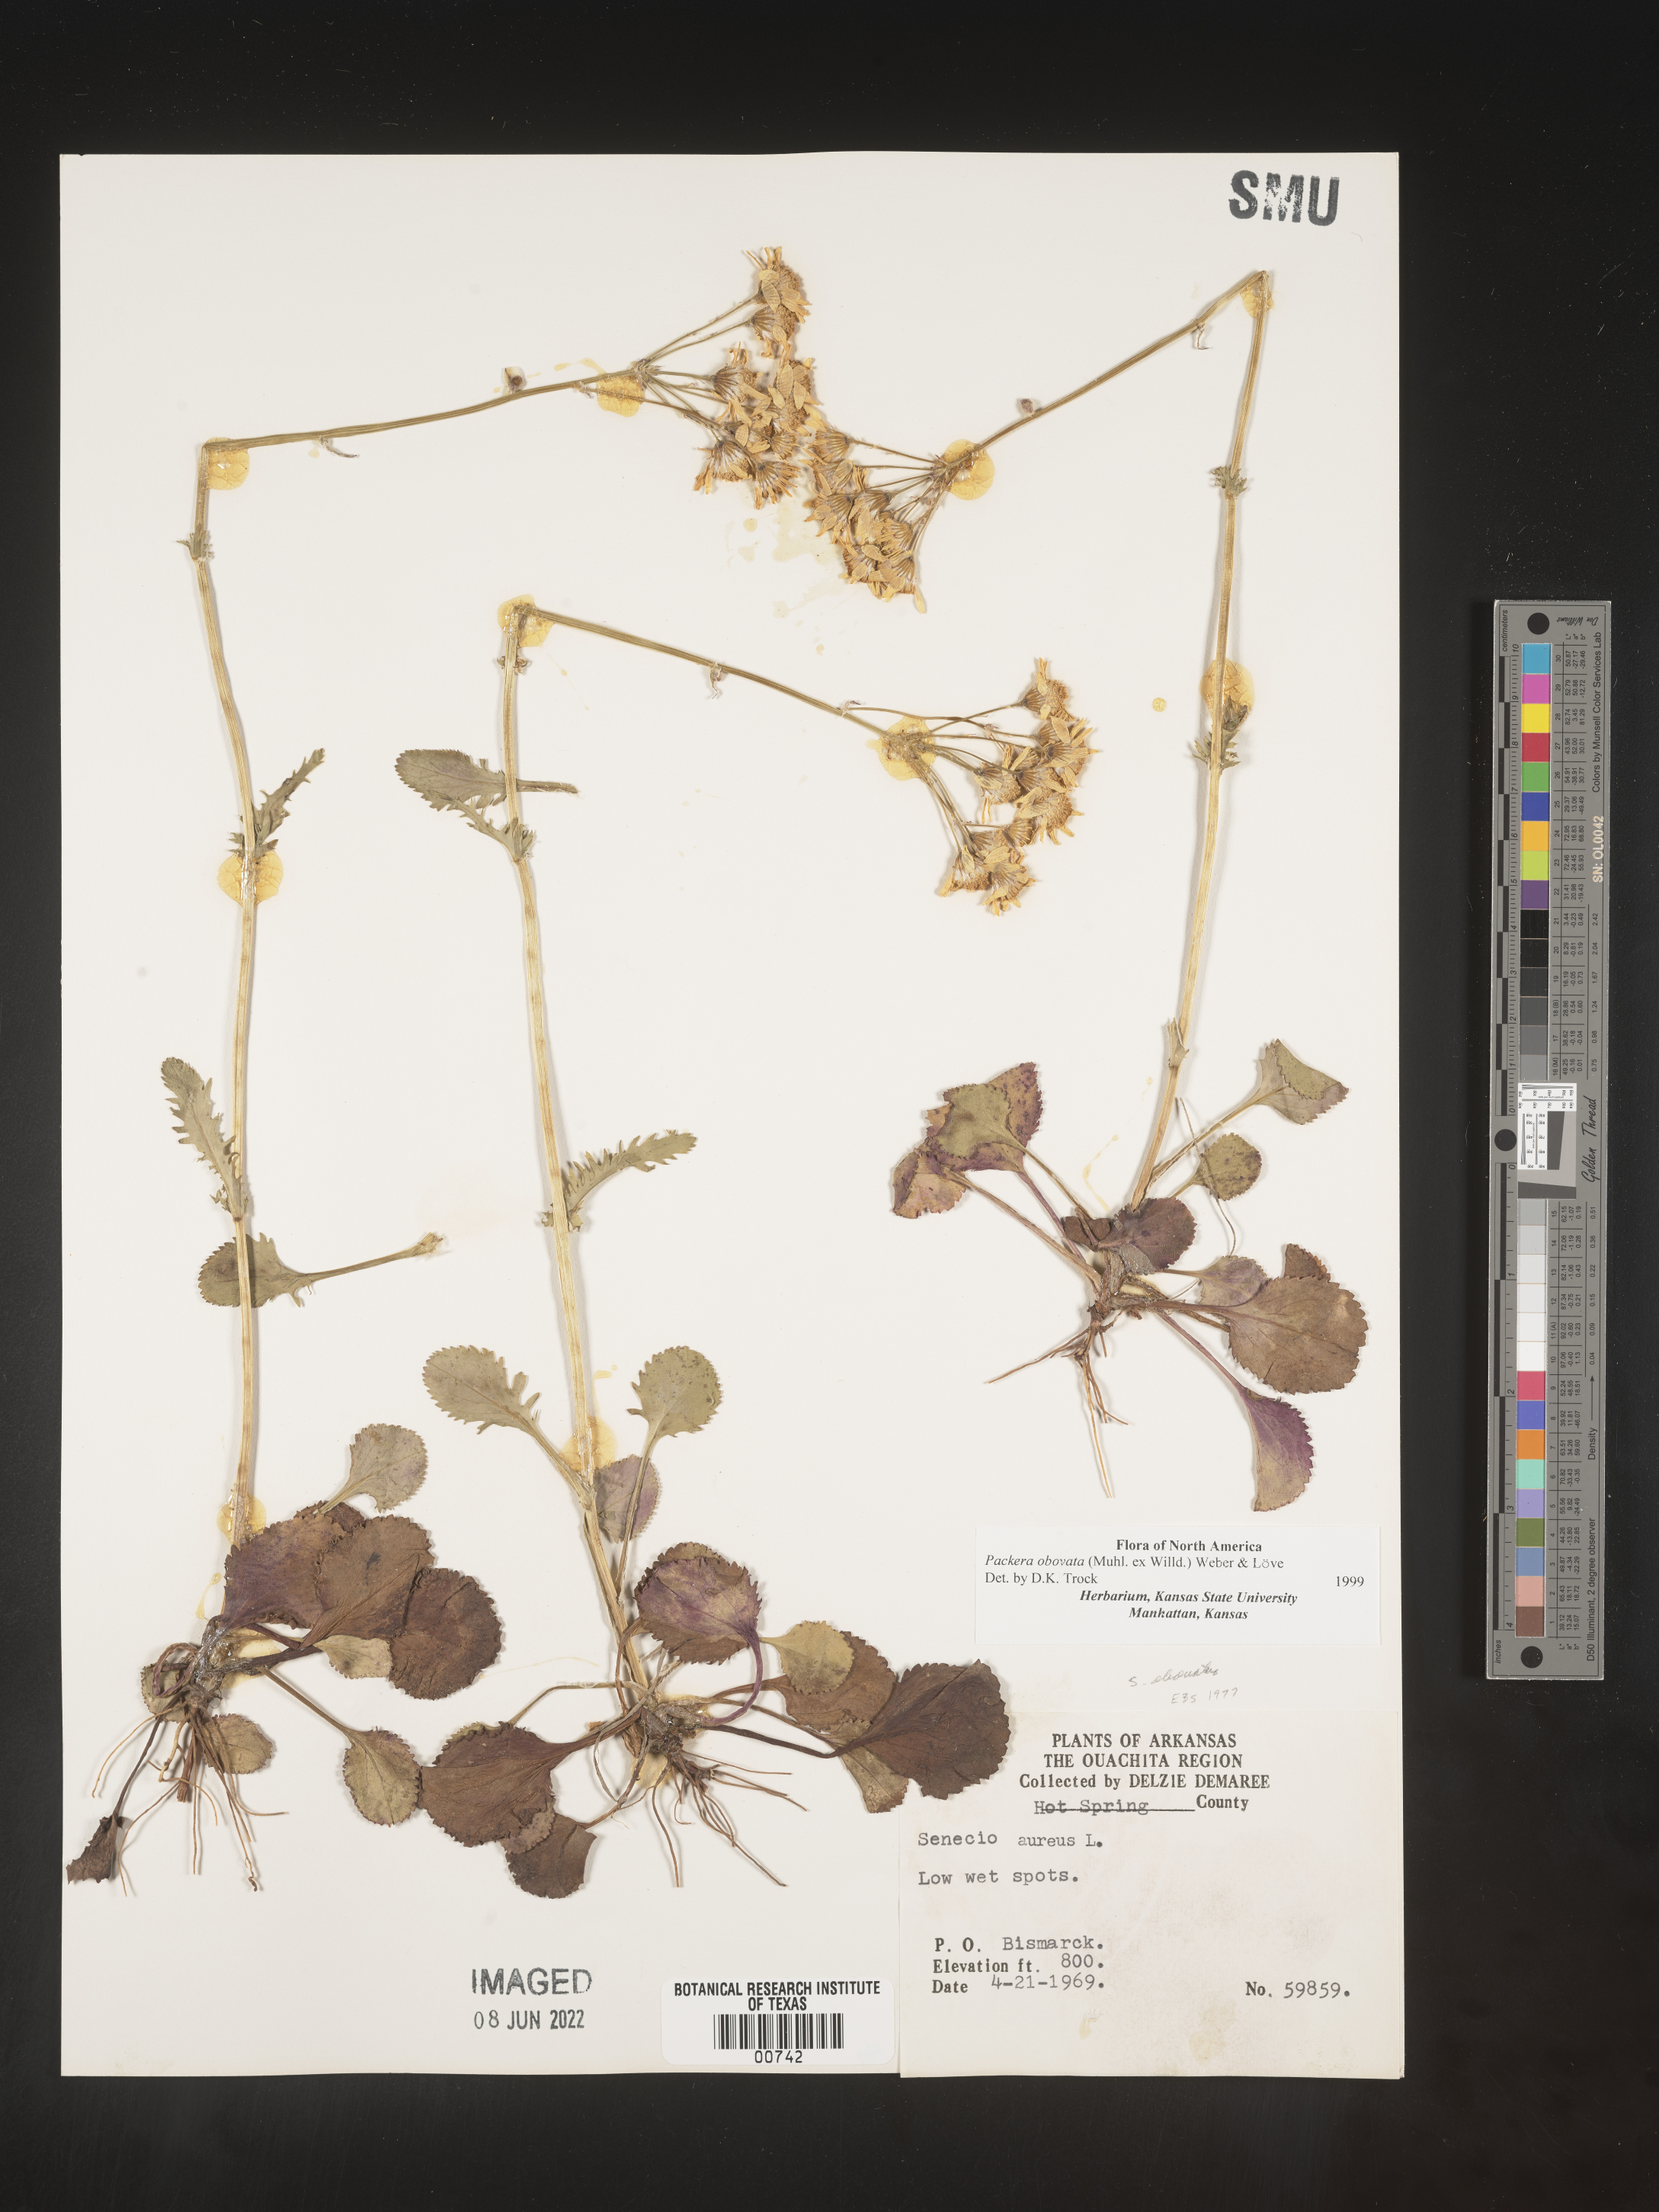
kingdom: Plantae
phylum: Tracheophyta
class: Magnoliopsida
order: Asterales
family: Asteraceae
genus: Packera
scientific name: Packera obovata
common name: Round-leaf ragwort
